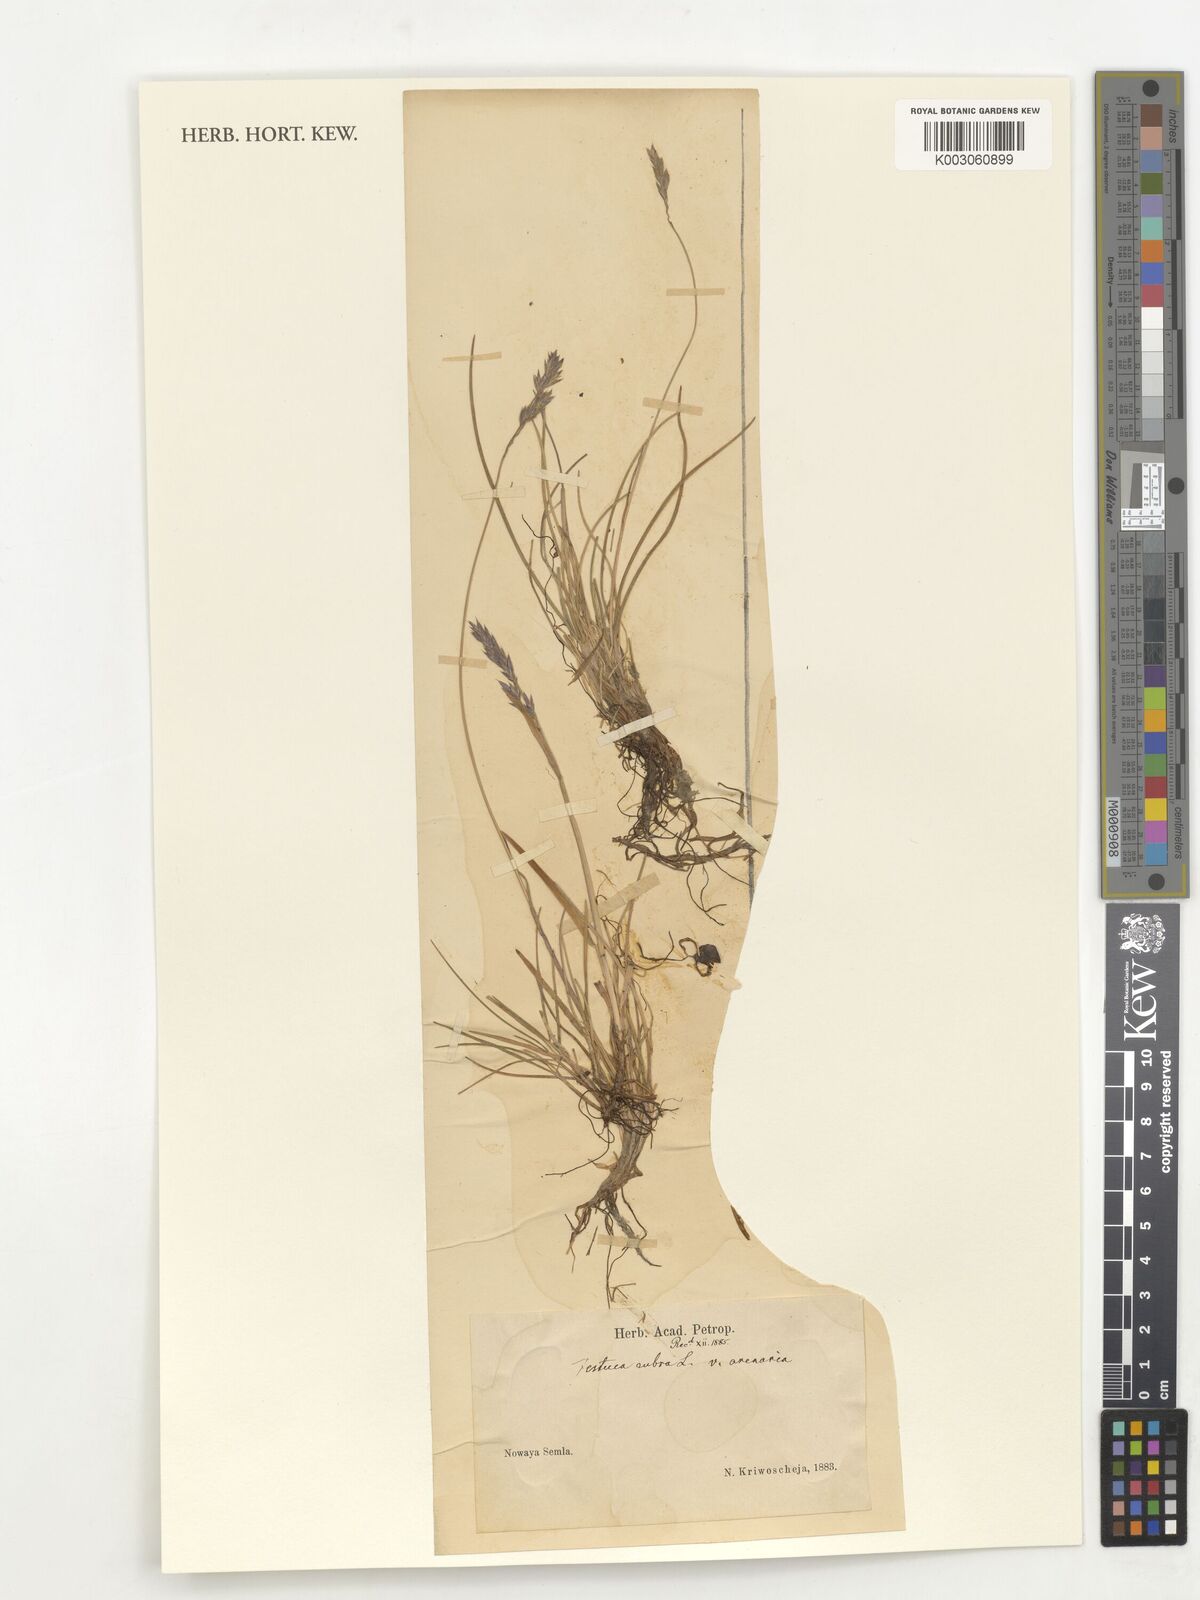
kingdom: Plantae
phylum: Tracheophyta
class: Liliopsida
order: Poales
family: Poaceae
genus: Festuca
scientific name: Festuca rubra
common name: Red fescue
